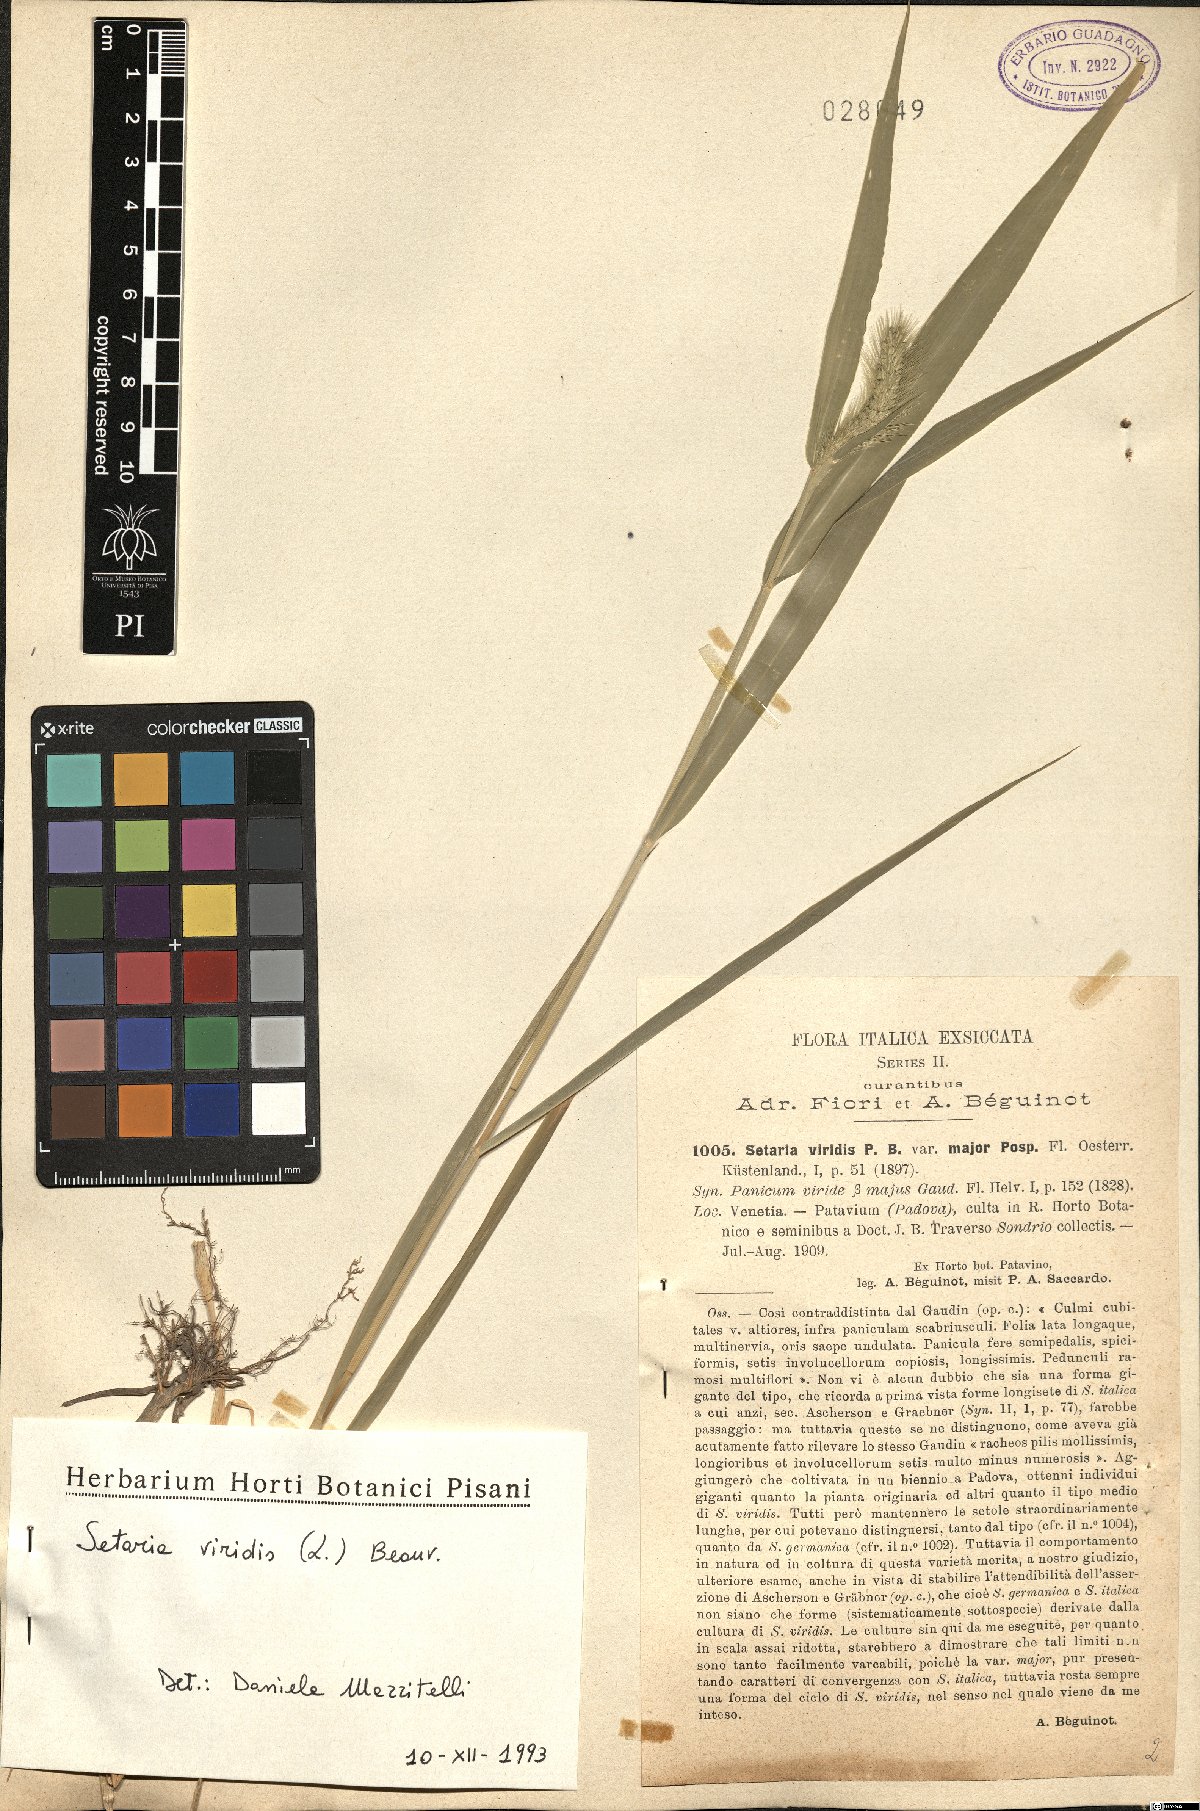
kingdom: Plantae
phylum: Tracheophyta
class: Liliopsida
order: Poales
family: Poaceae
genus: Setaria
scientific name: Setaria viridis
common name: Green bristlegrass
